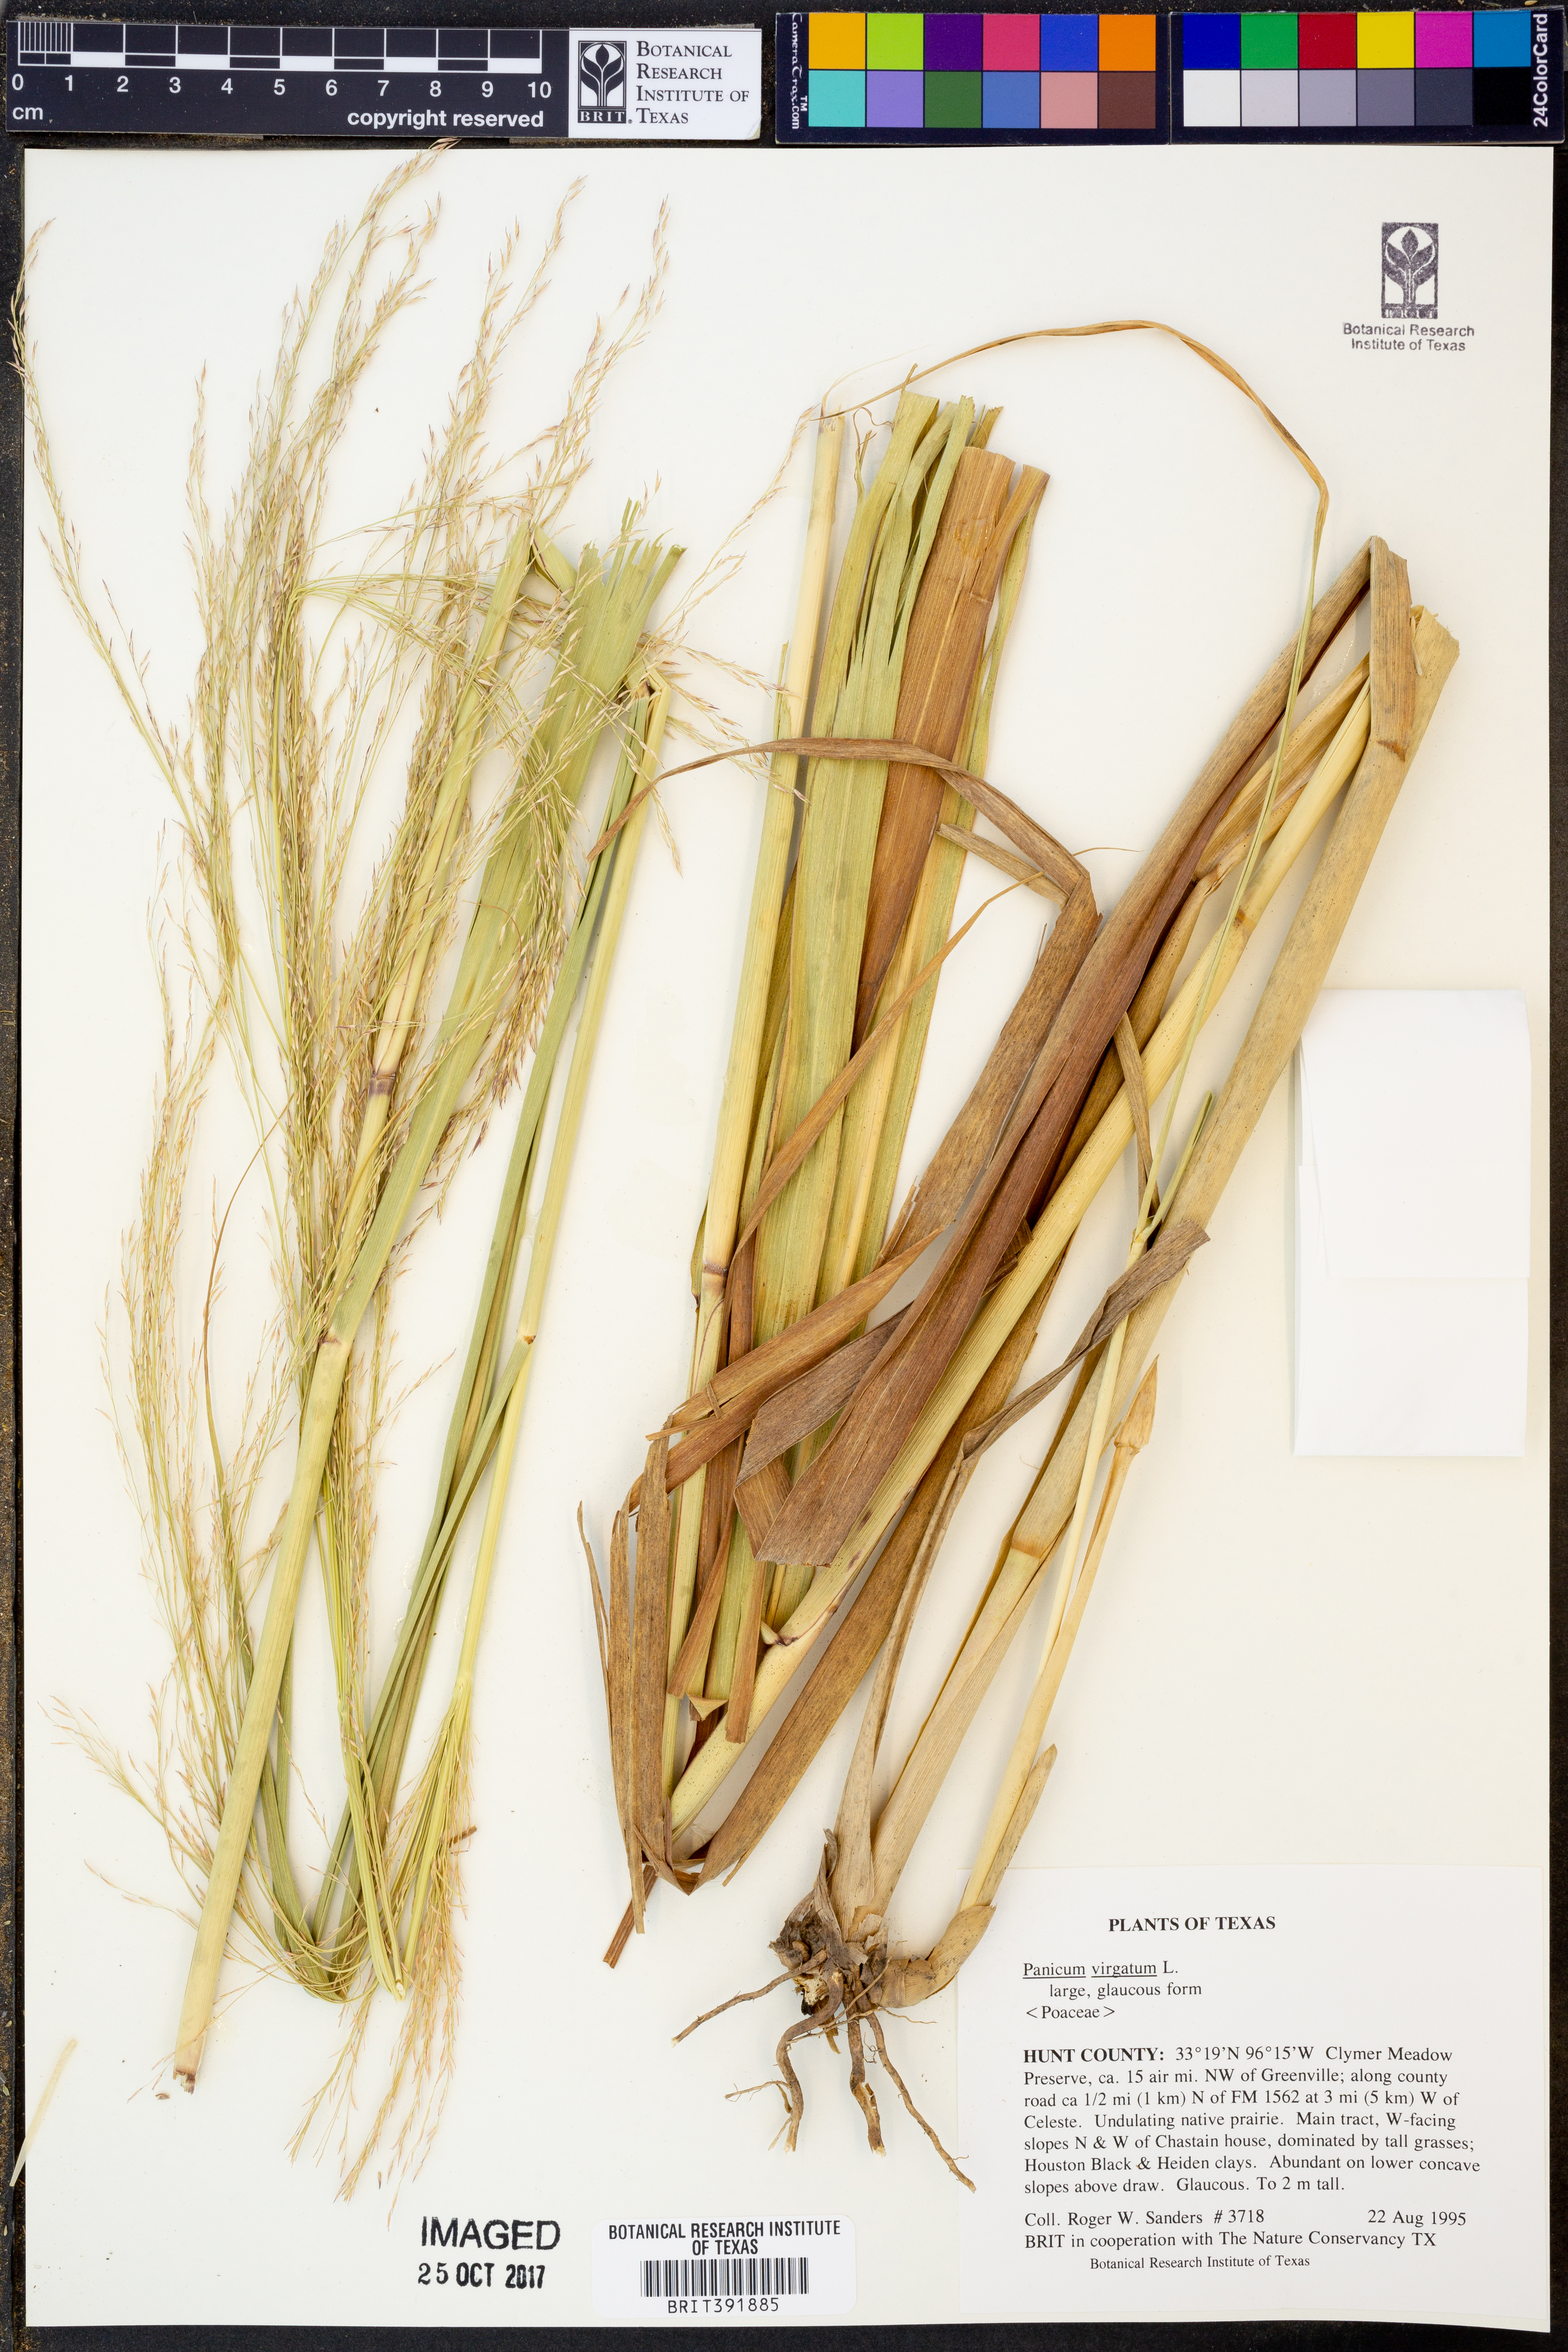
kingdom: Plantae
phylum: Tracheophyta
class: Liliopsida
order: Poales
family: Poaceae
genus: Panicum
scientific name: Panicum virgatum
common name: Switchgrass
